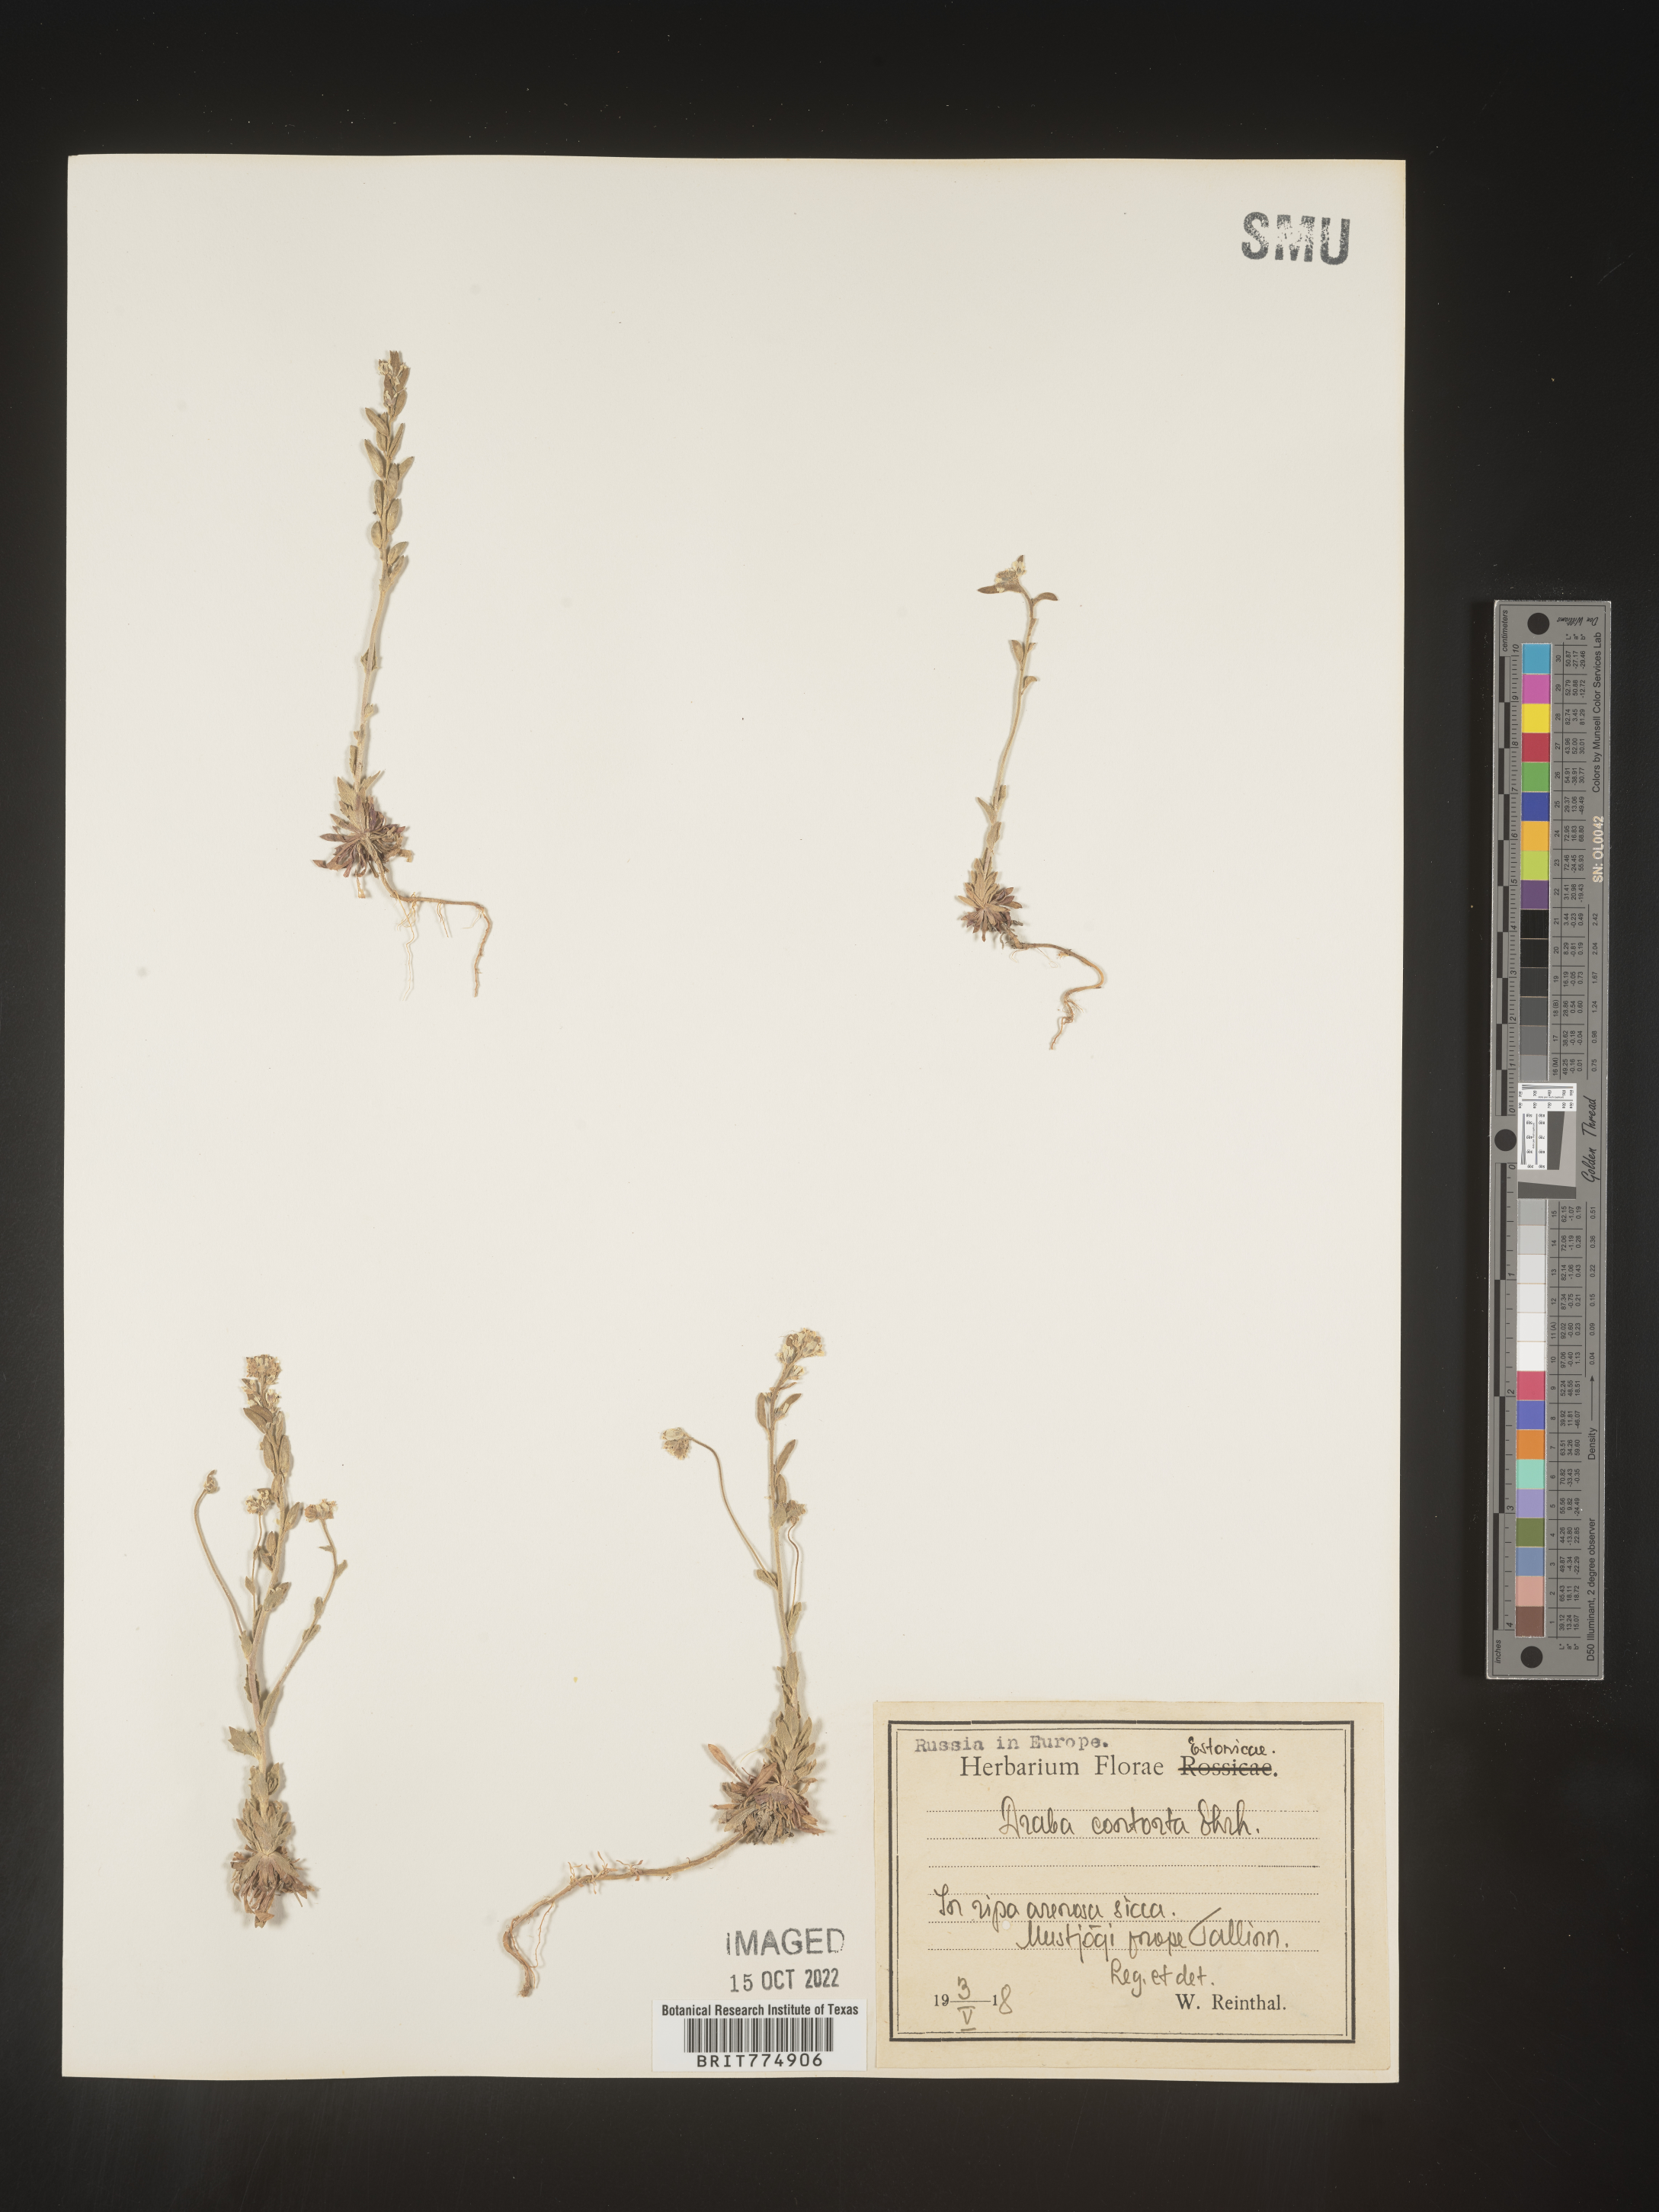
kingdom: Plantae
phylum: Tracheophyta
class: Magnoliopsida
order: Brassicales
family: Brassicaceae
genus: Draba
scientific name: Draba
